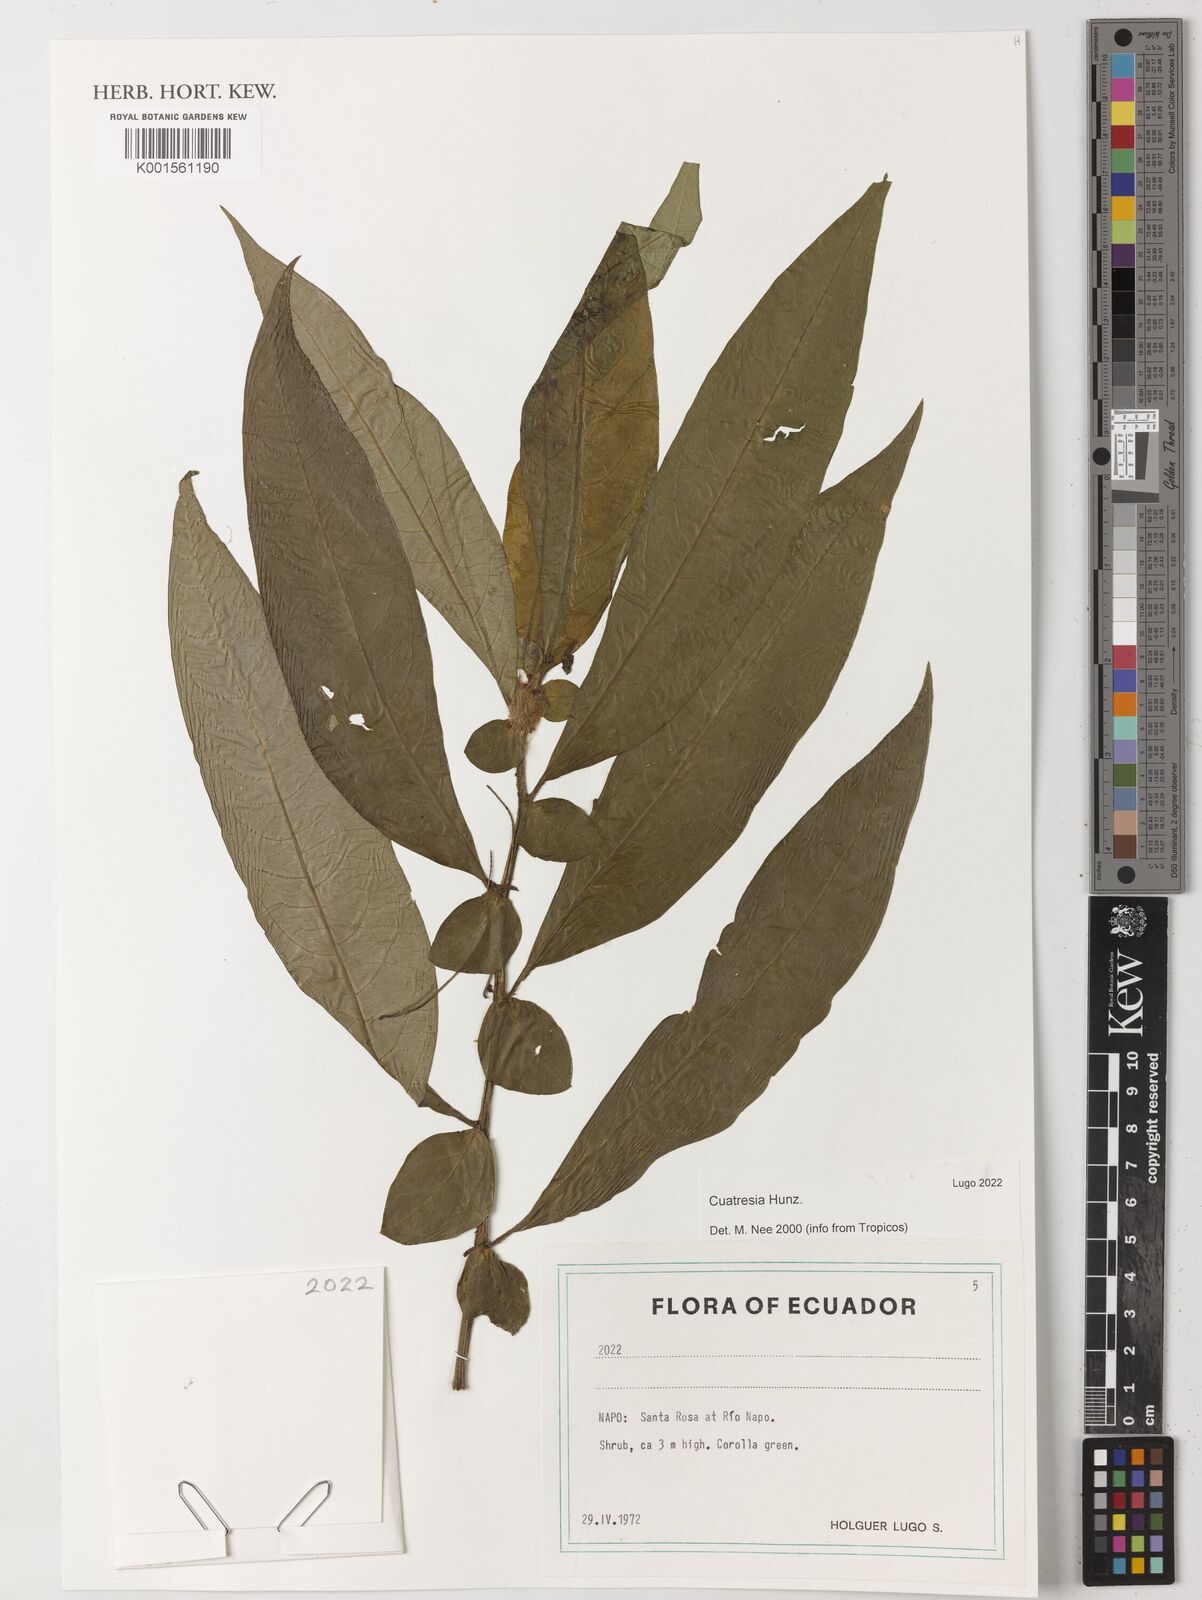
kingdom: Plantae
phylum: Tracheophyta
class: Magnoliopsida
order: Solanales
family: Solanaceae
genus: Cuatresia
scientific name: Cuatresia
